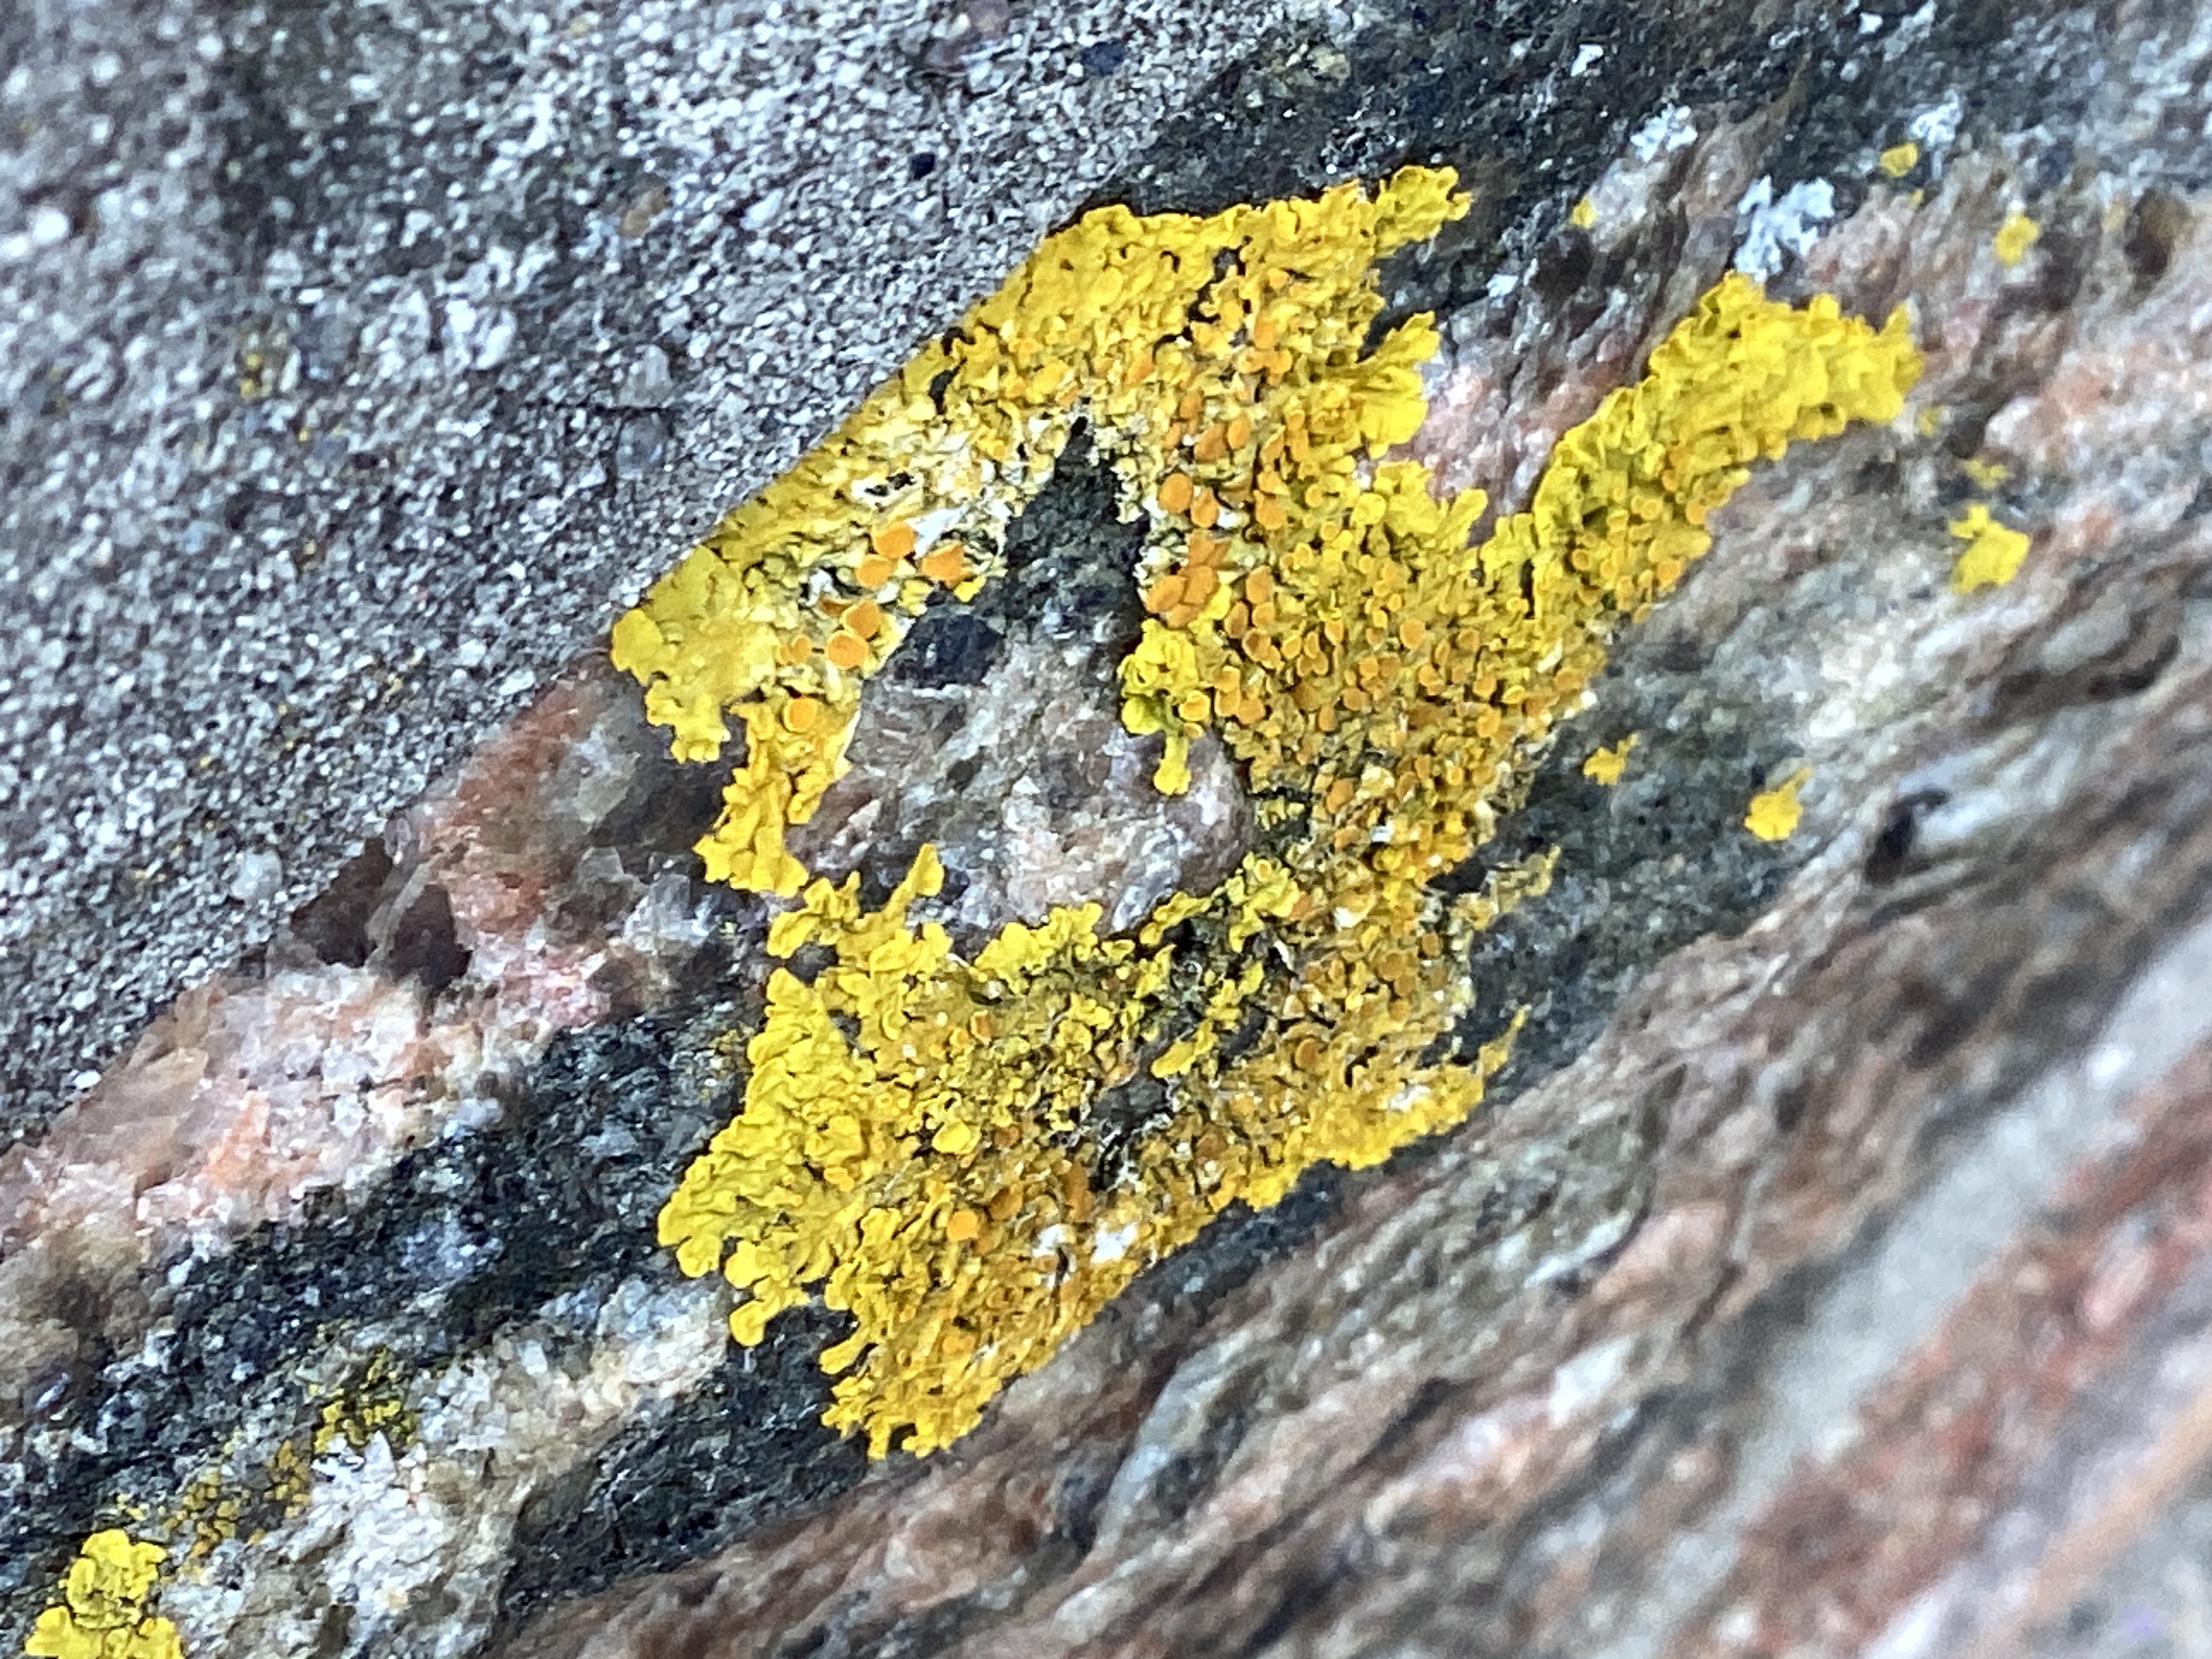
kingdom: Fungi
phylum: Ascomycota
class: Lecanoromycetes
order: Teloschistales
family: Teloschistaceae
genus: Xanthoria
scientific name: Xanthoria parietina
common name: Almindelig væggelav
